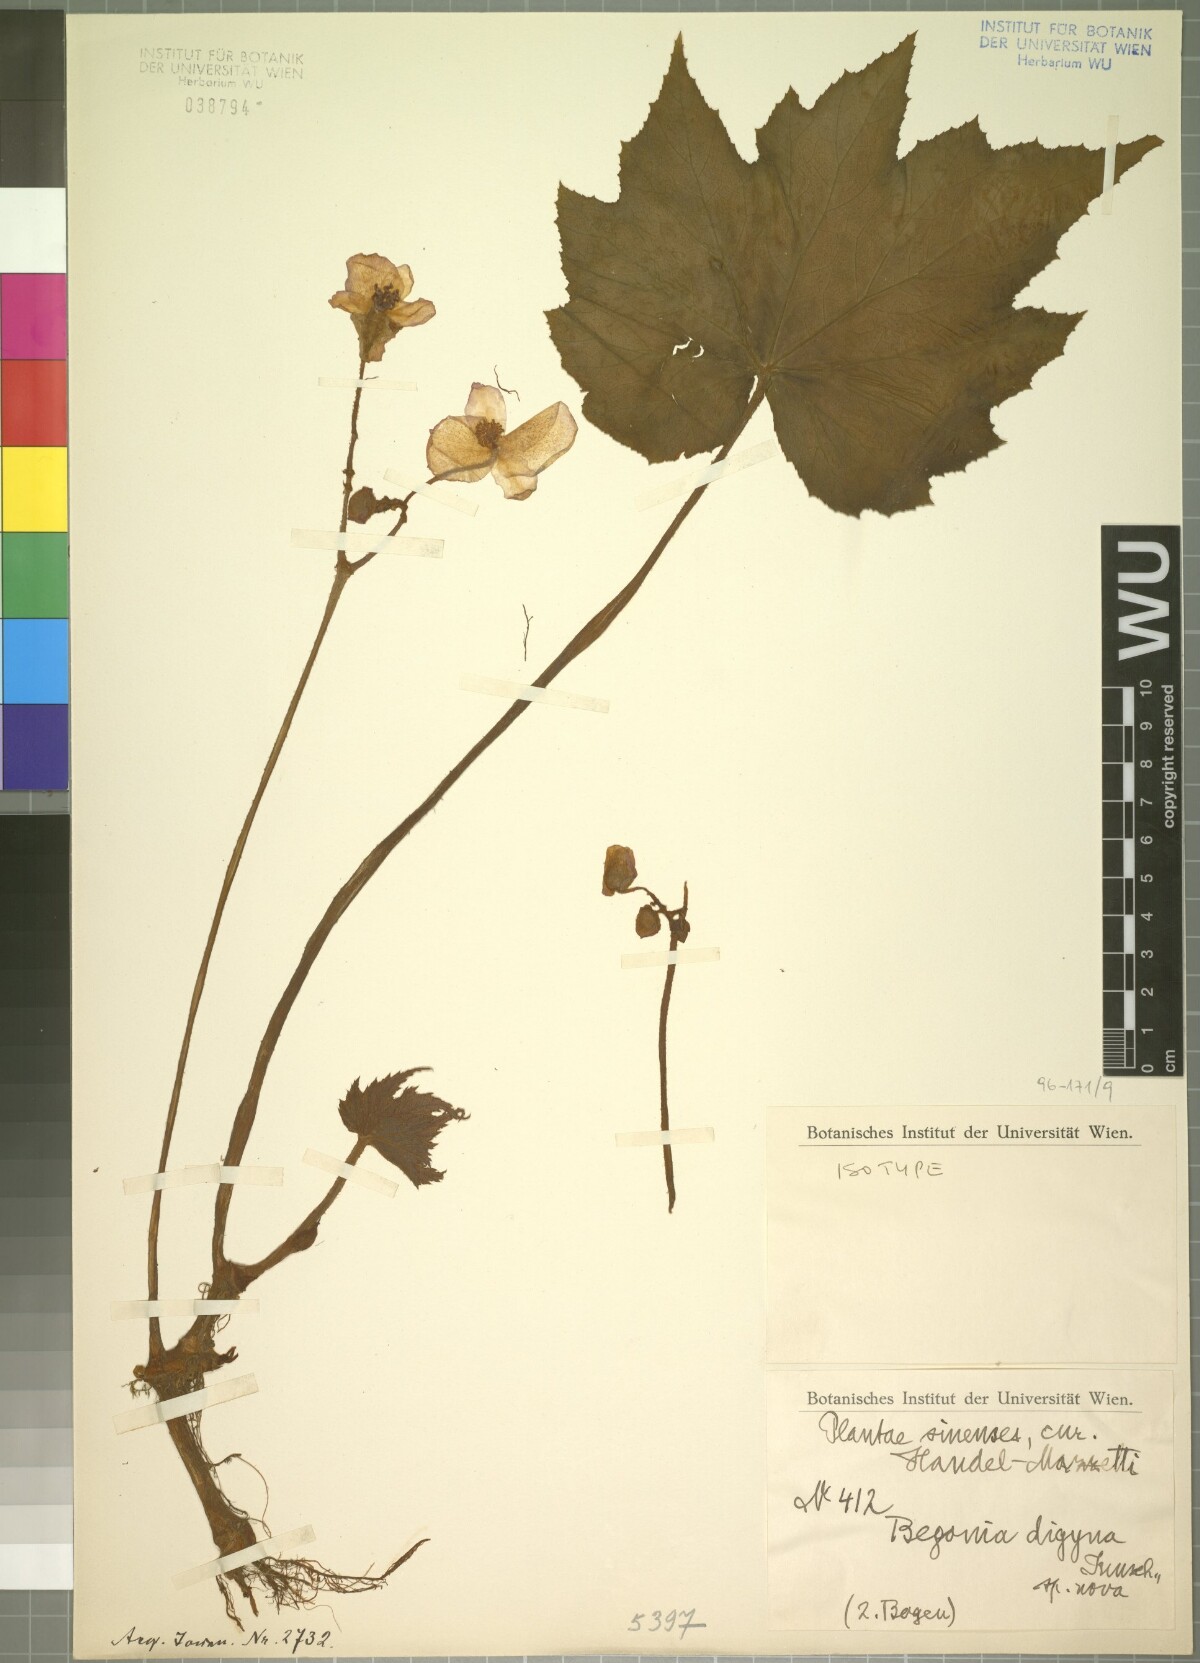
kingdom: Plantae
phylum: Tracheophyta
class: Magnoliopsida
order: Cucurbitales
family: Begoniaceae
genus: Begonia
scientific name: Begonia digyna
